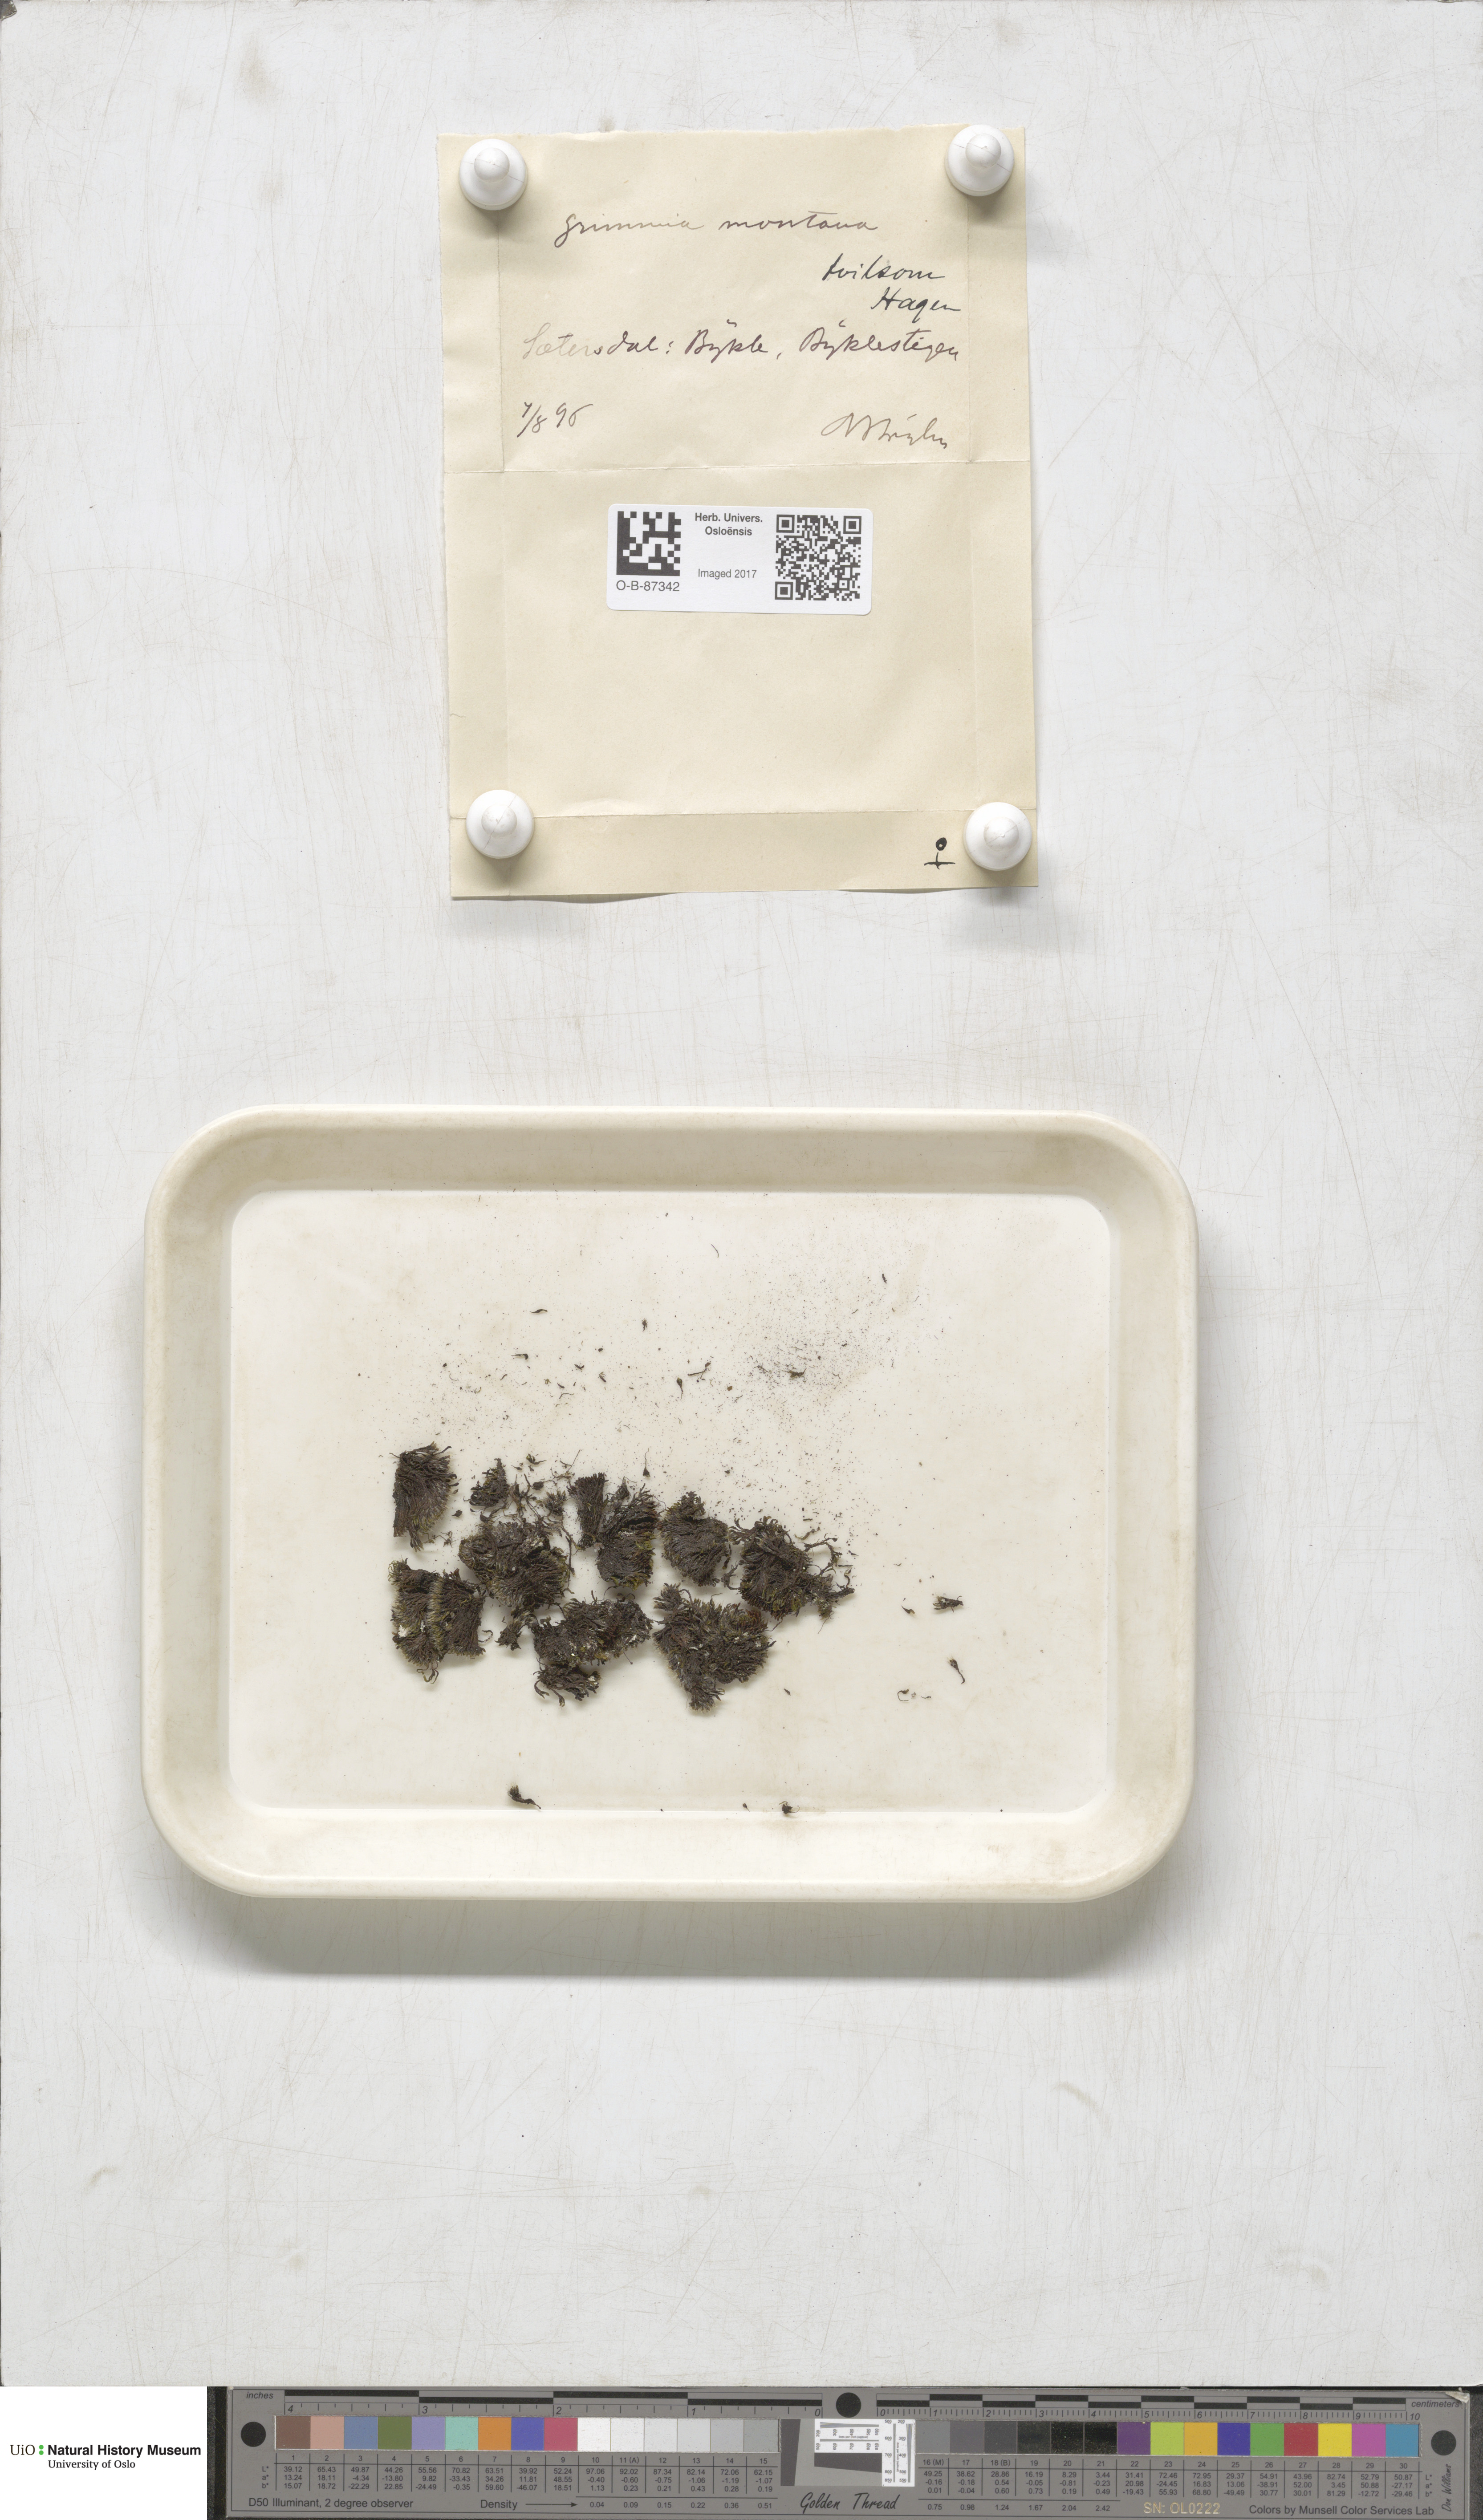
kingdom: Plantae
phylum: Bryophyta
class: Bryopsida
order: Grimmiales
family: Grimmiaceae
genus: Grimmia
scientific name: Grimmia montana
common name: Sun grimmia
